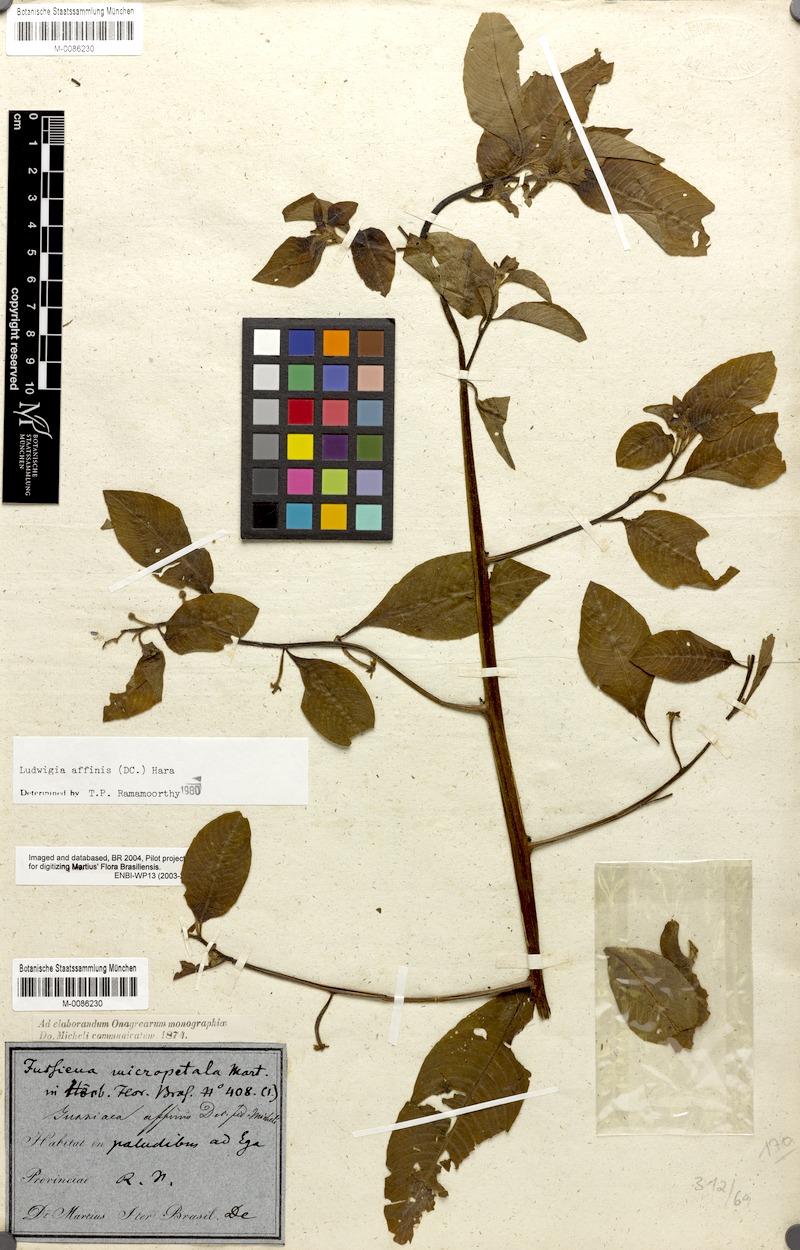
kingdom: Plantae
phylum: Tracheophyta
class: Magnoliopsida
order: Myrtales
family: Onagraceae
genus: Ludwigia
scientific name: Ludwigia affinis
